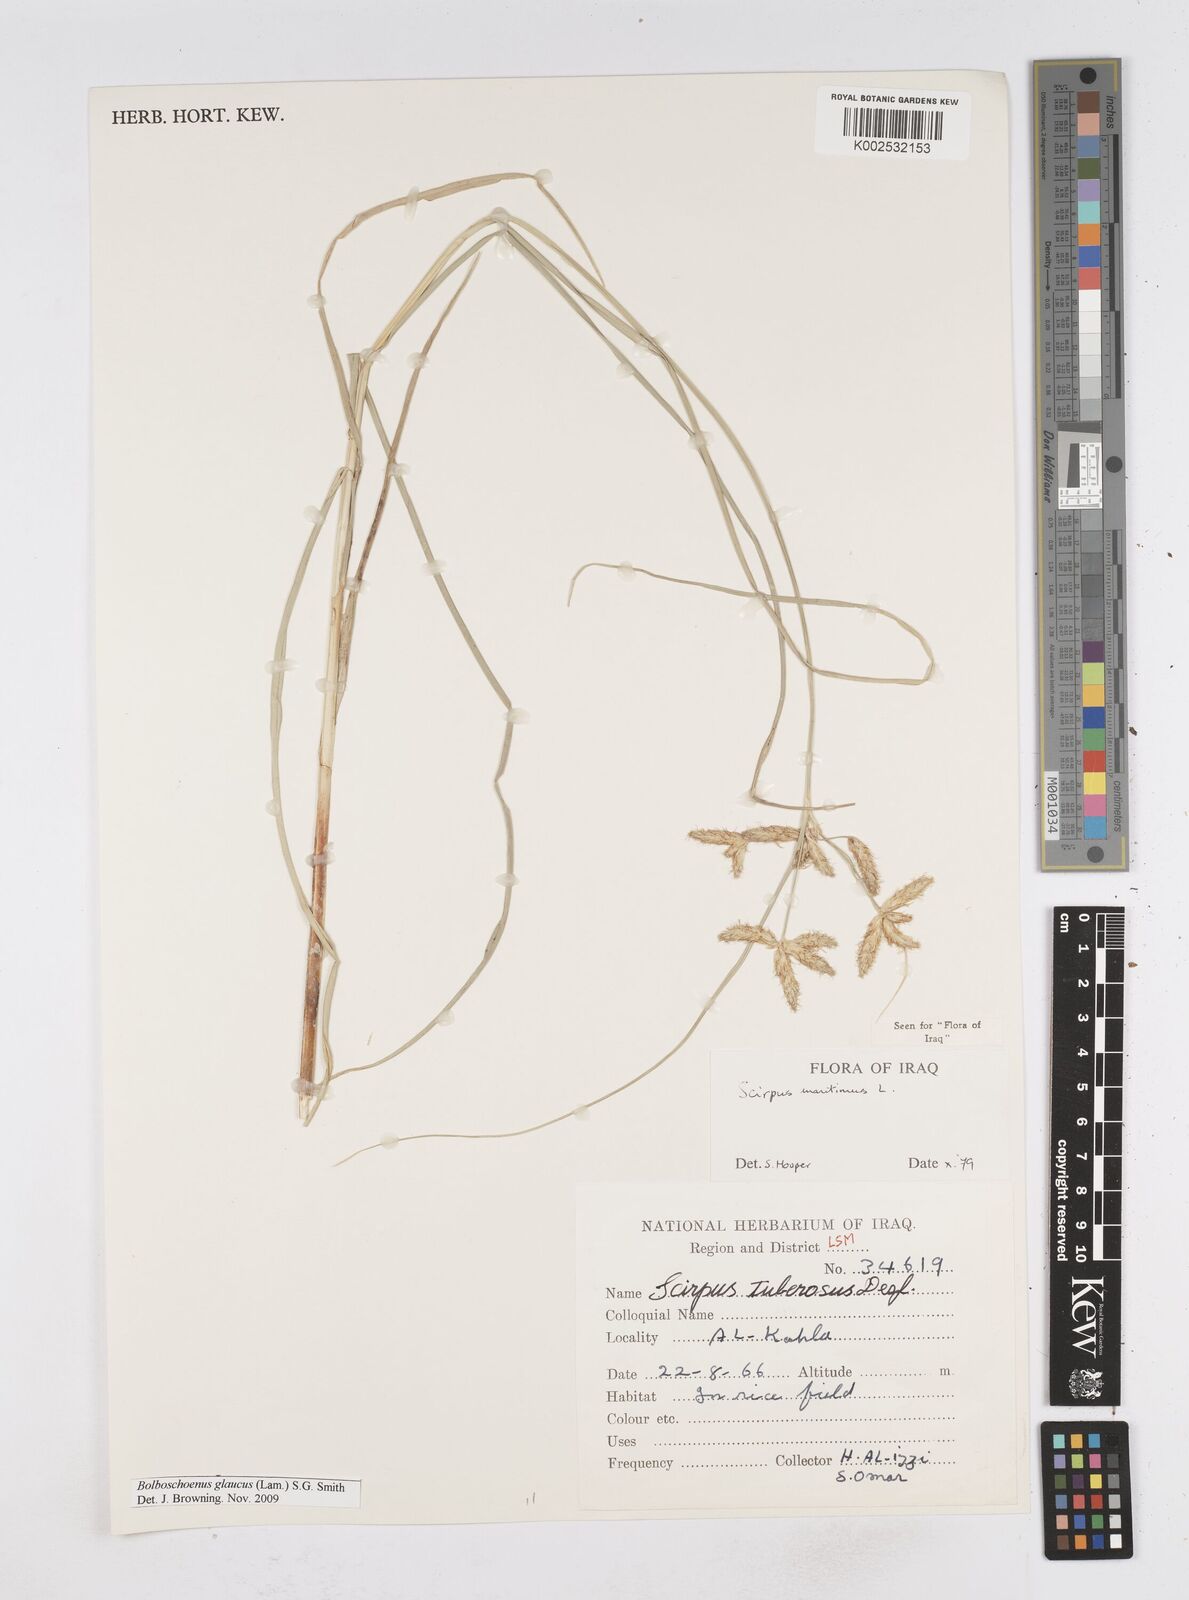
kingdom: Plantae
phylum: Tracheophyta
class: Liliopsida
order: Poales
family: Cyperaceae
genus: Bolboschoenus
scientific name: Bolboschoenus maritimus
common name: Sea club-rush
